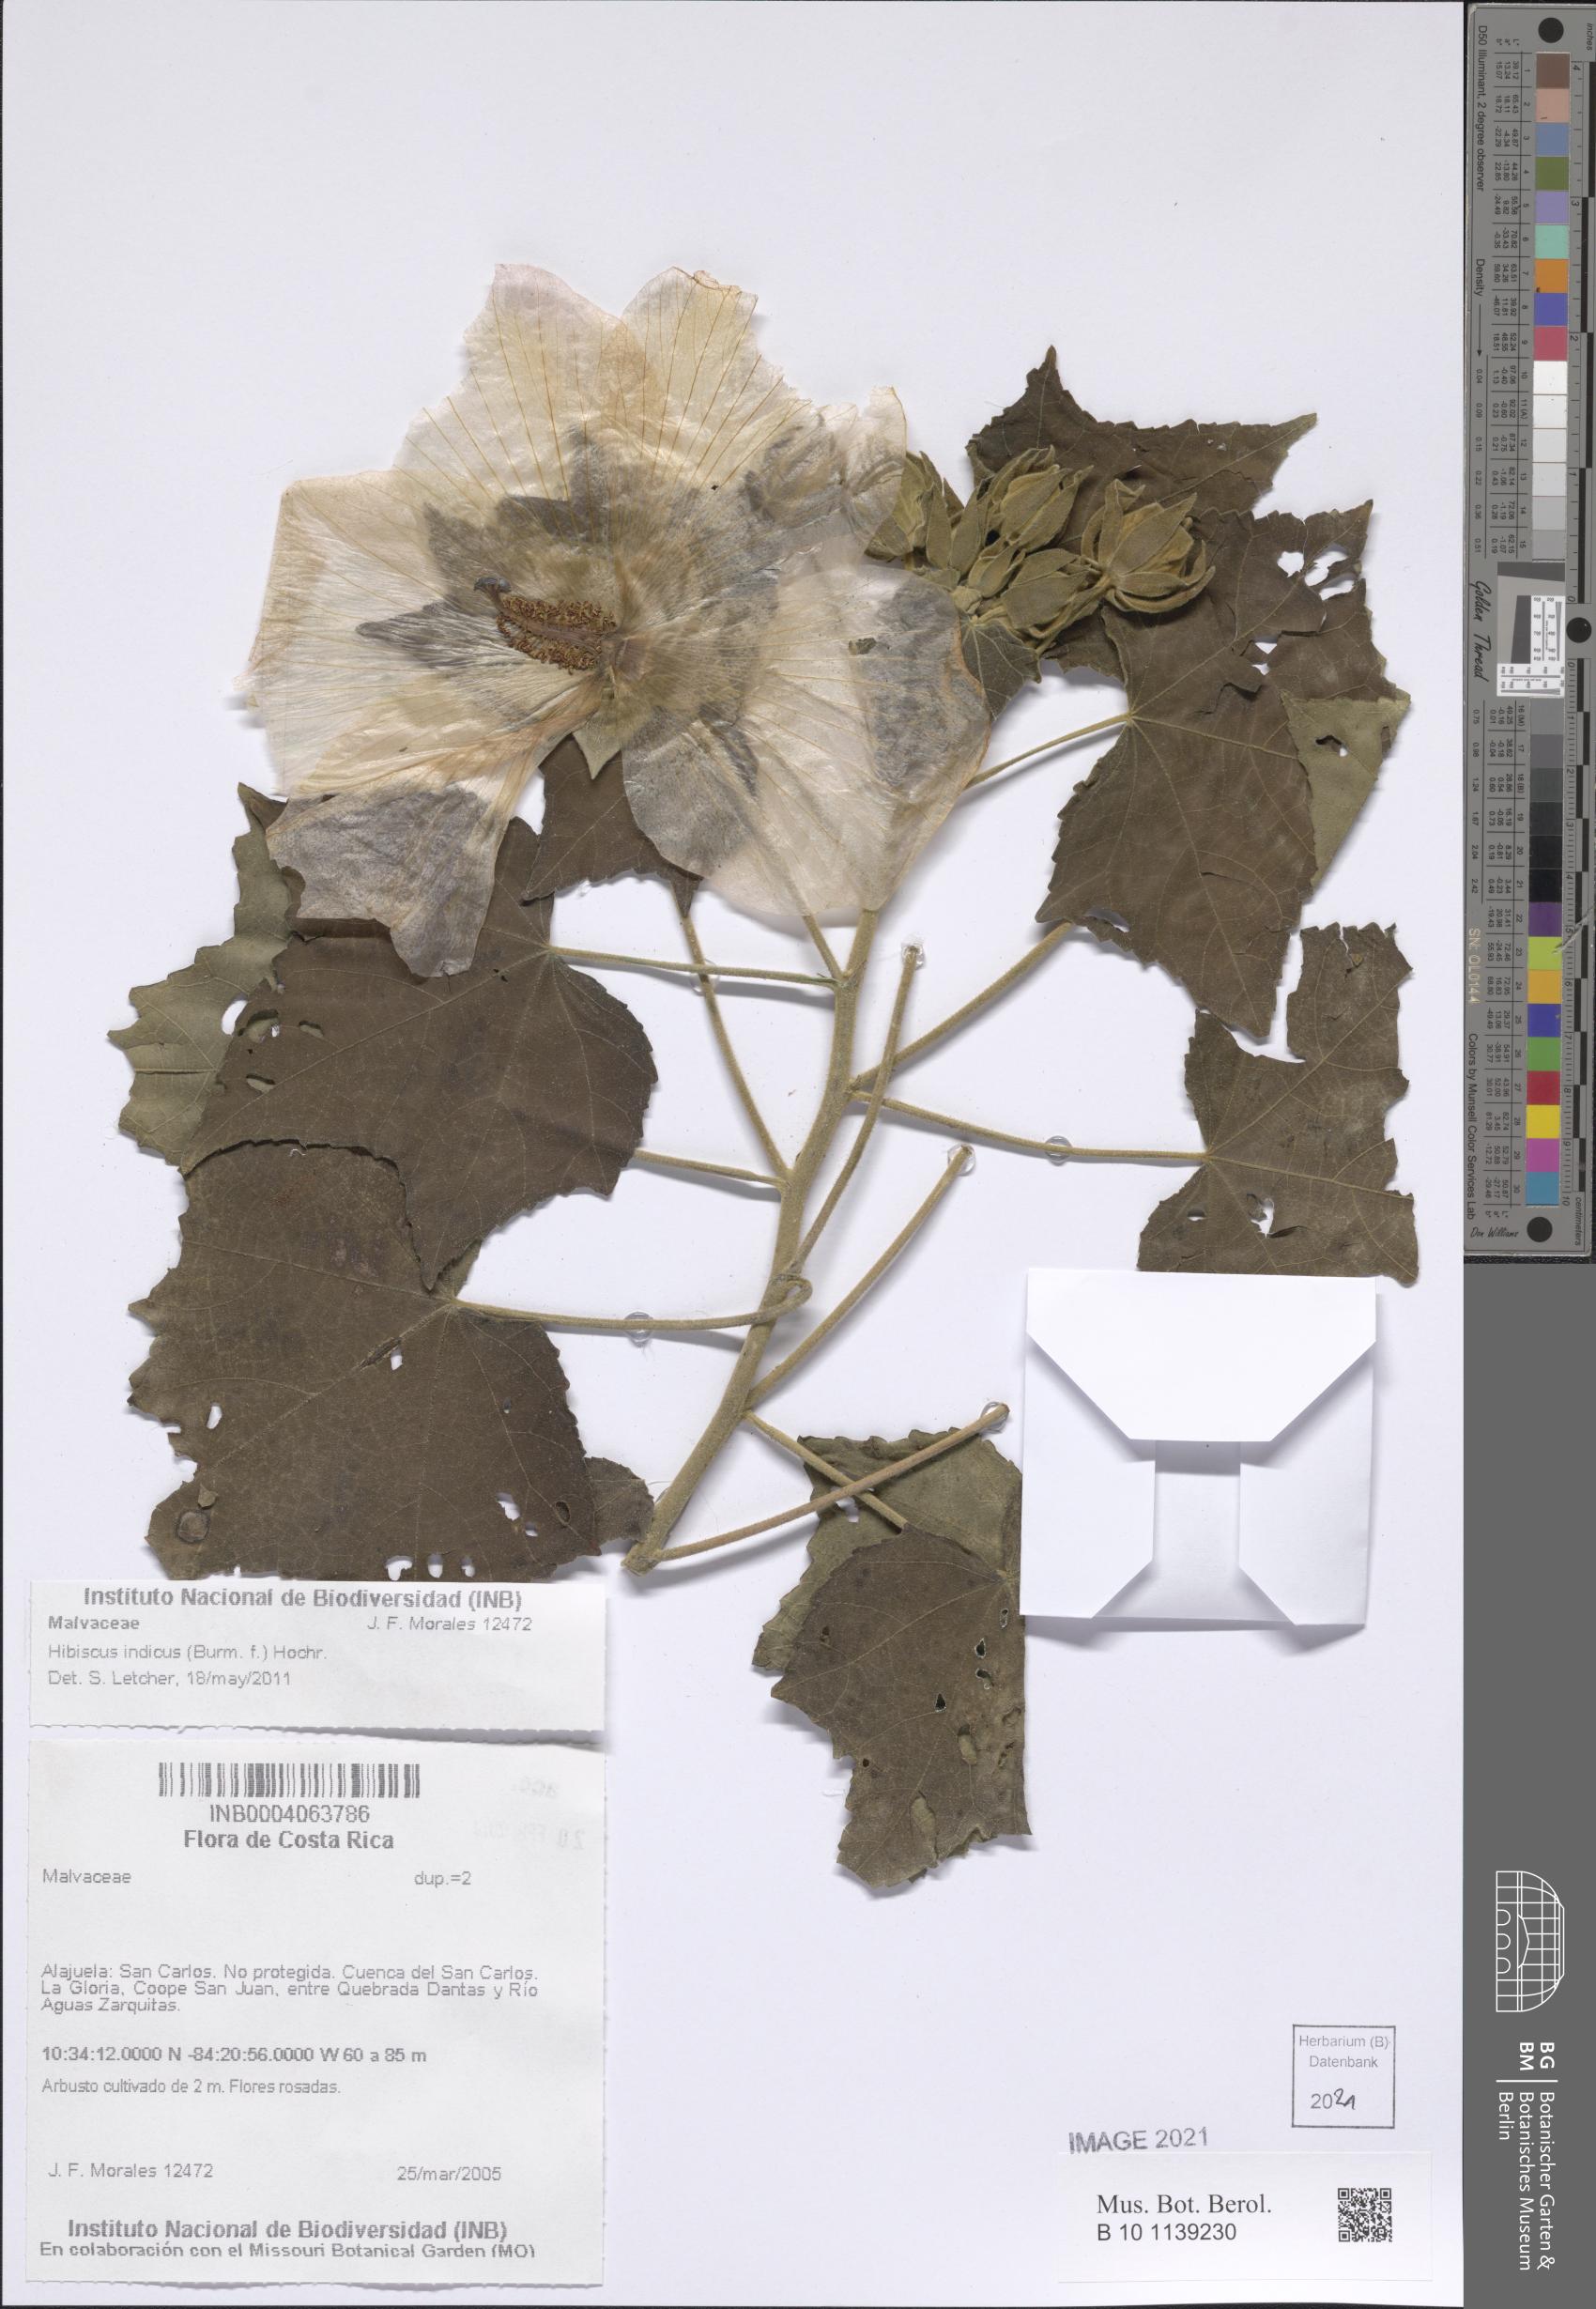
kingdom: Plantae
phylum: Tracheophyta
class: Magnoliopsida
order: Malvales
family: Malvaceae
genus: Hibiscus
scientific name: Hibiscus indicus
